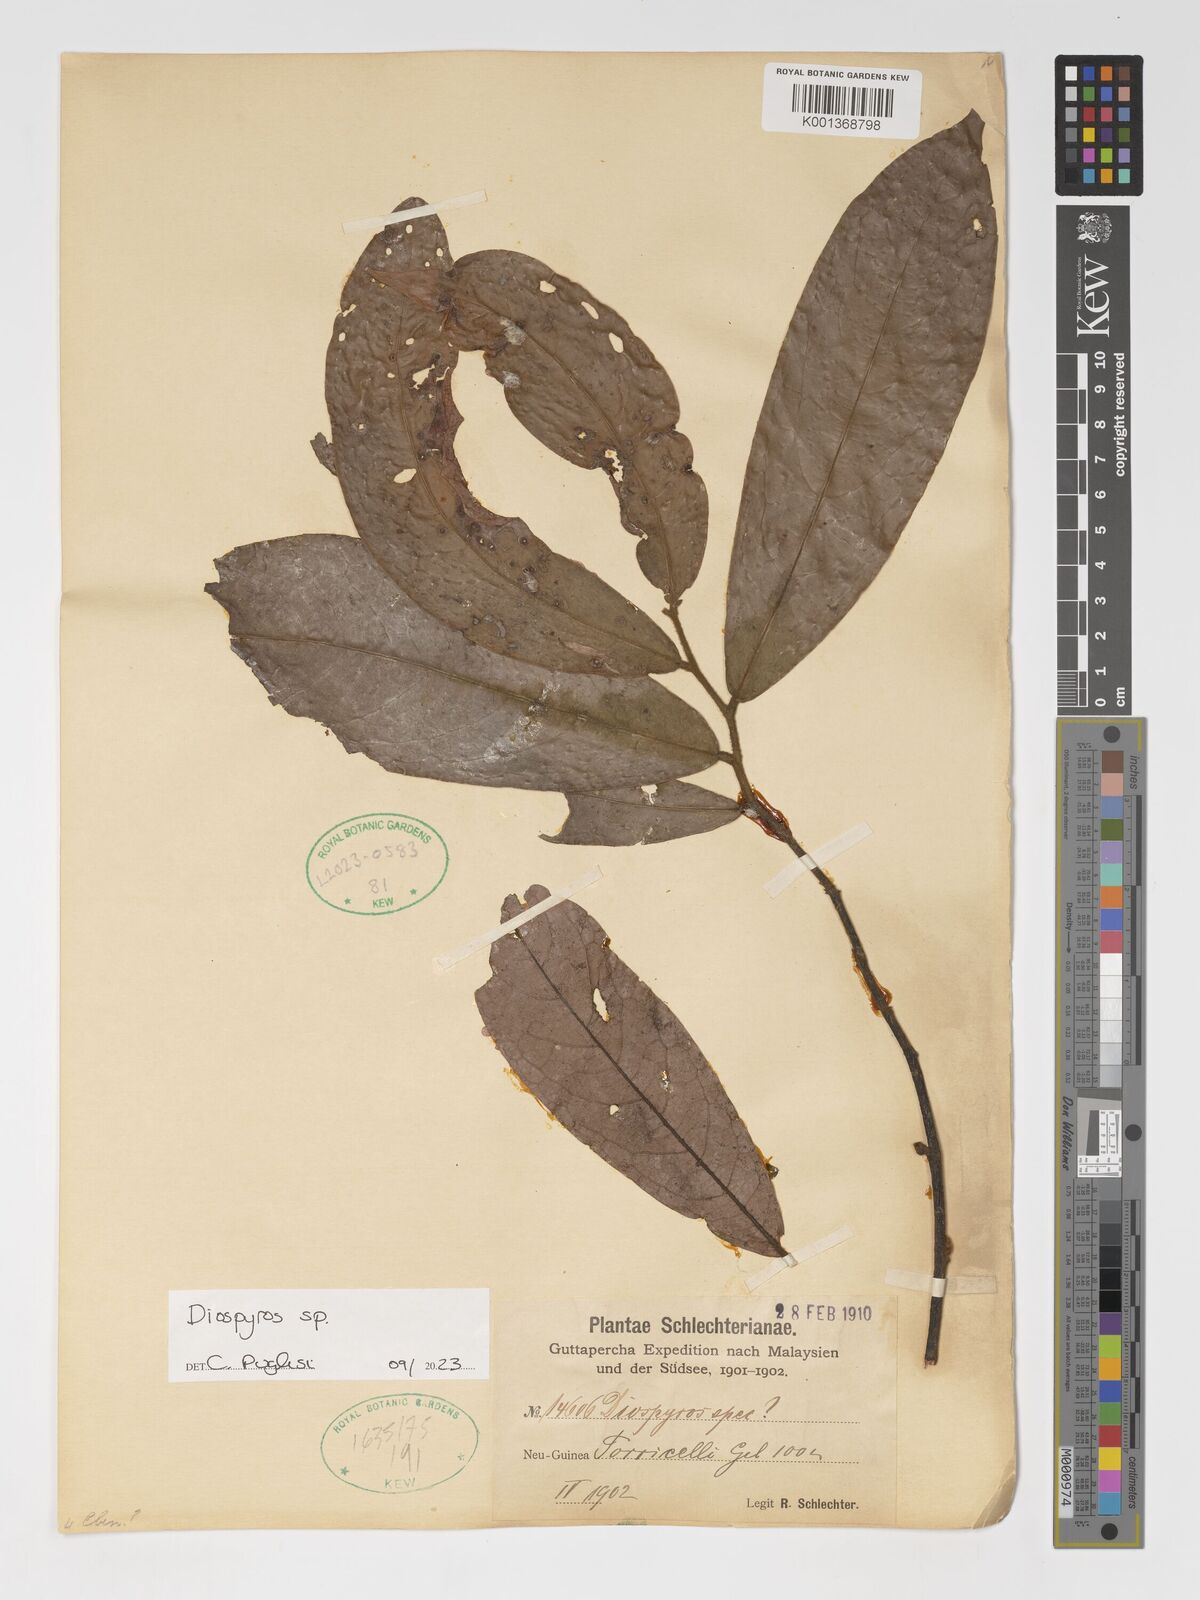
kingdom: Plantae
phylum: Tracheophyta
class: Magnoliopsida
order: Ericales
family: Ebenaceae
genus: Diospyros
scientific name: Diospyros
